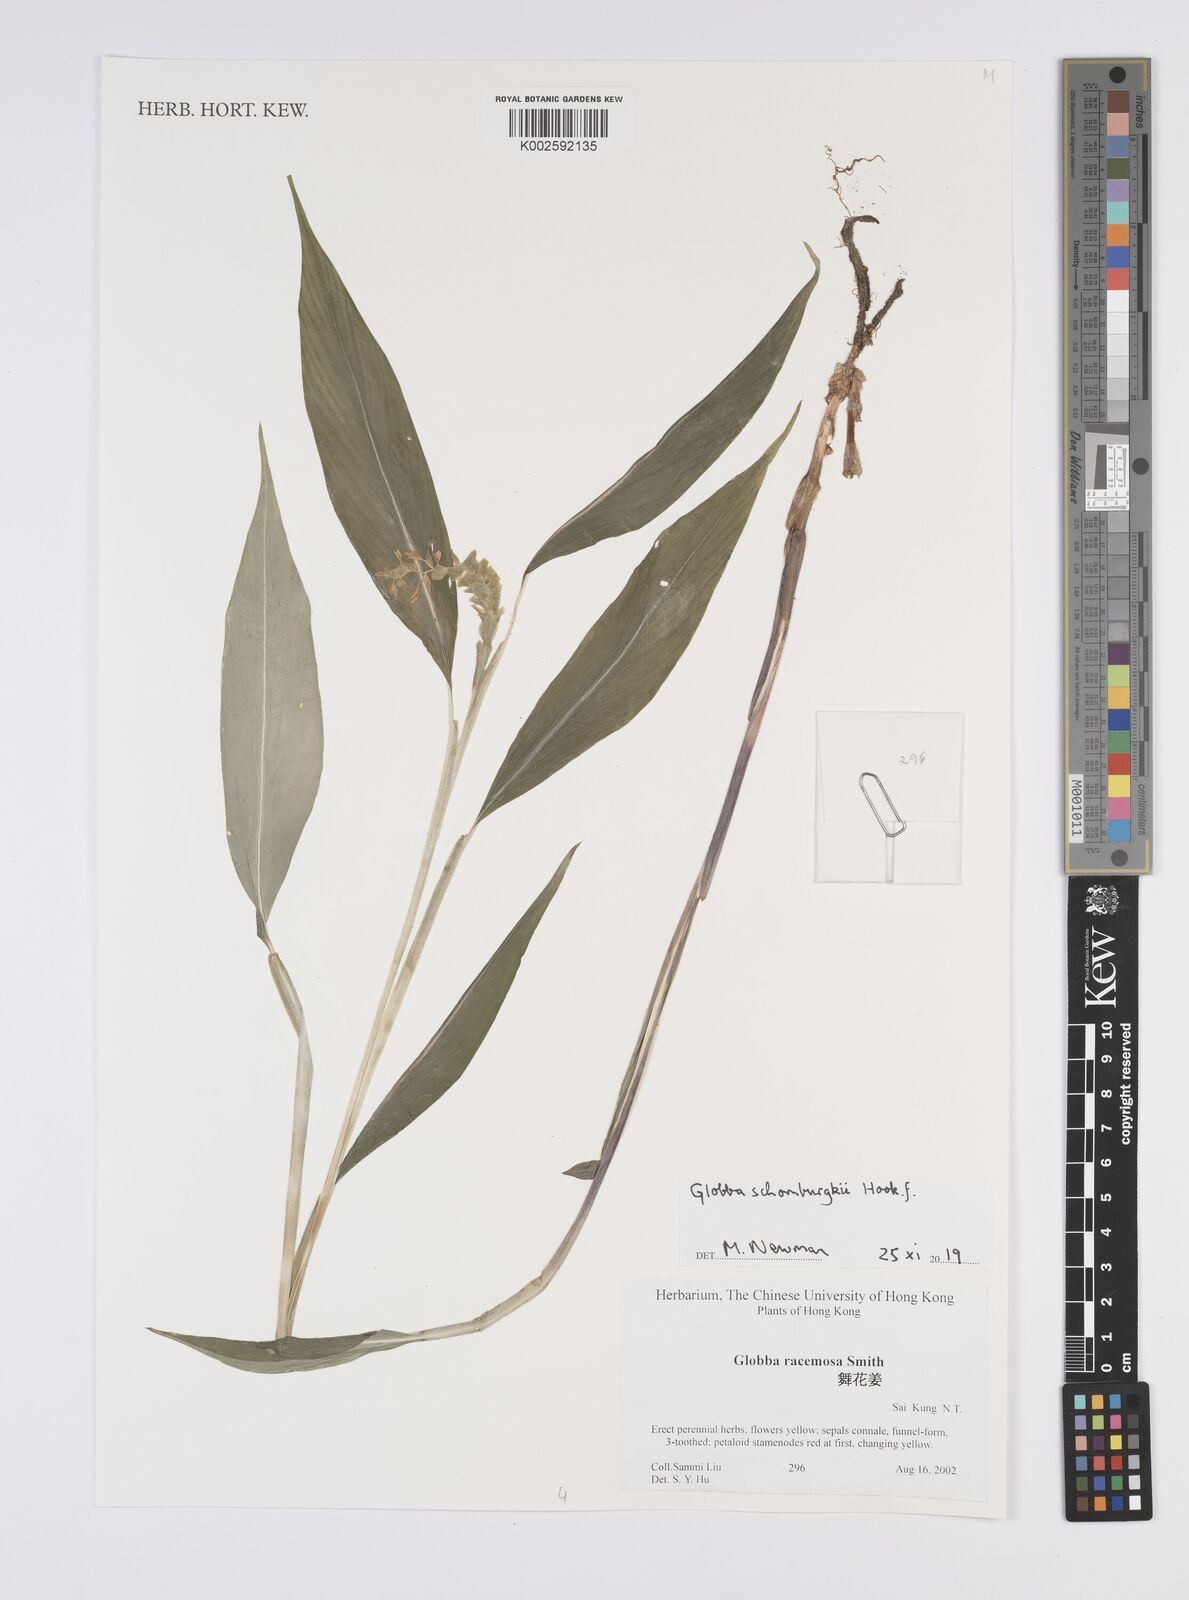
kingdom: Plantae
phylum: Tracheophyta
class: Liliopsida
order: Zingiberales
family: Zingiberaceae
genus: Globba
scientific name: Globba schomburgkii
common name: Dancing girl ginger
